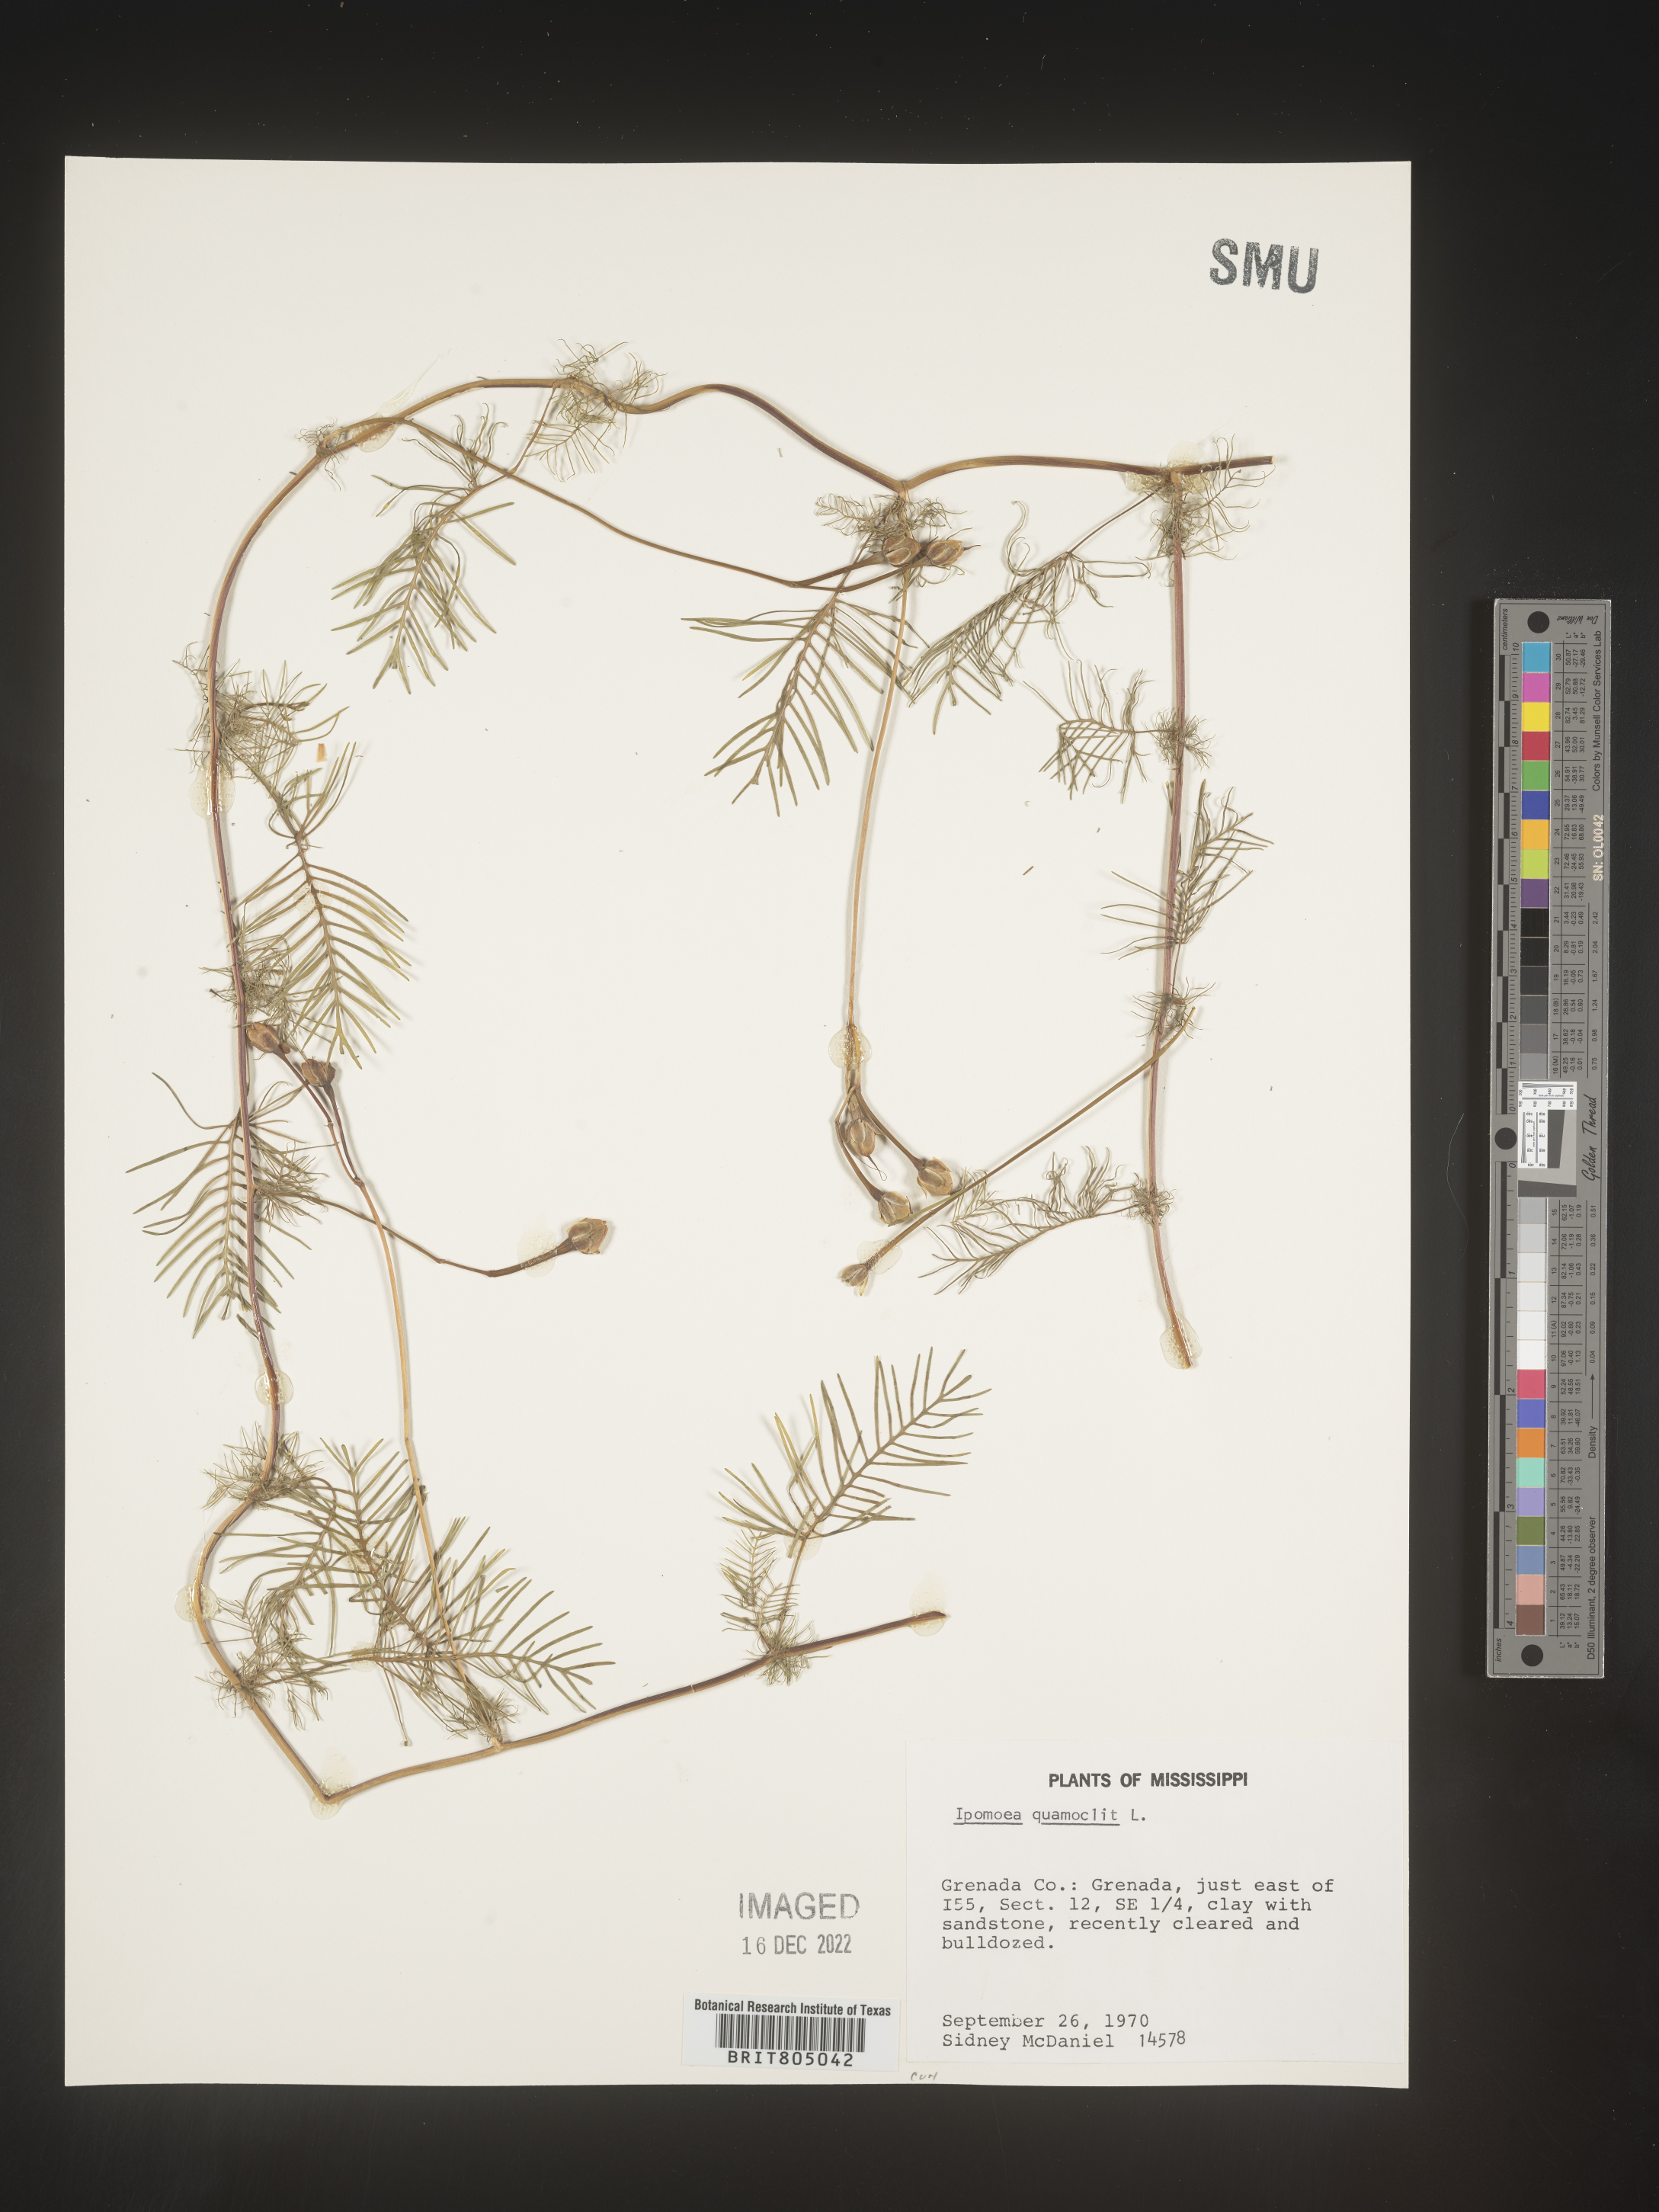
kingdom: Plantae
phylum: Tracheophyta
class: Magnoliopsida
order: Solanales
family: Convolvulaceae
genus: Ipomoea
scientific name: Ipomoea quamoclit
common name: Cypress vine
